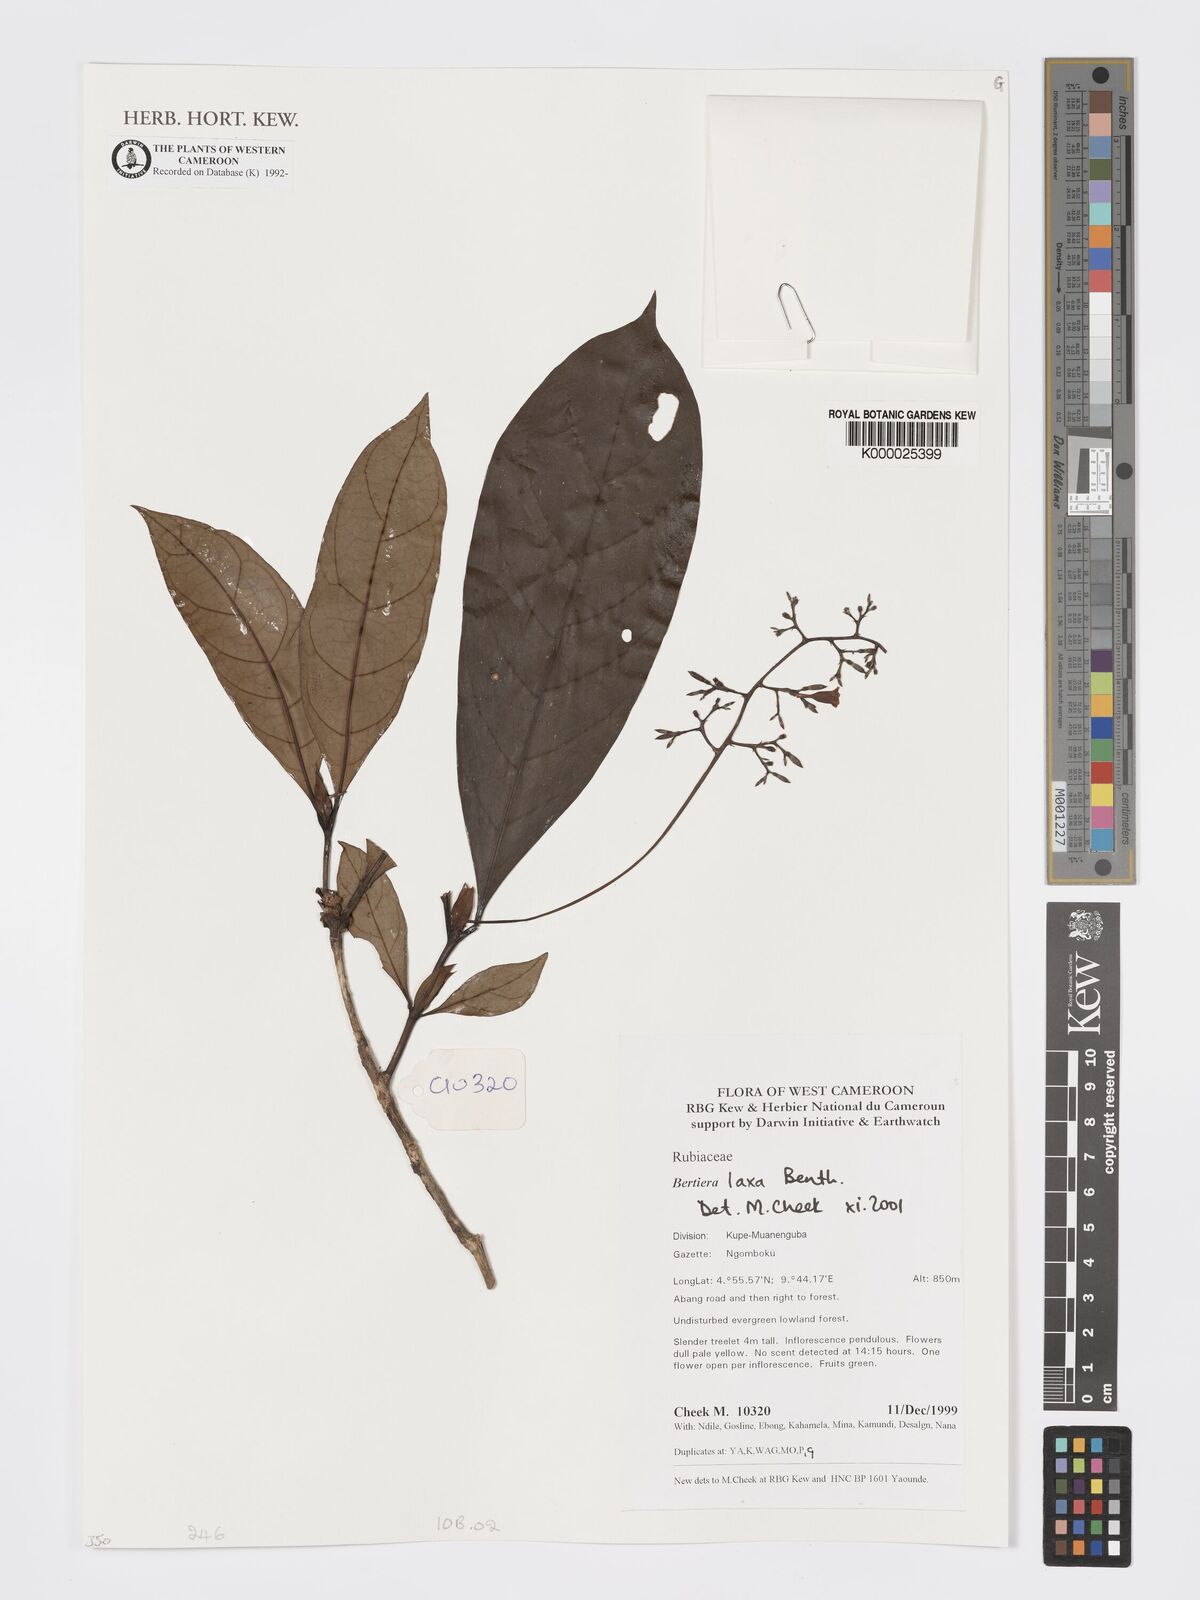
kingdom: Plantae
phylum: Tracheophyta
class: Magnoliopsida
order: Gentianales
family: Rubiaceae
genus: Bertiera
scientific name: Bertiera laxa
